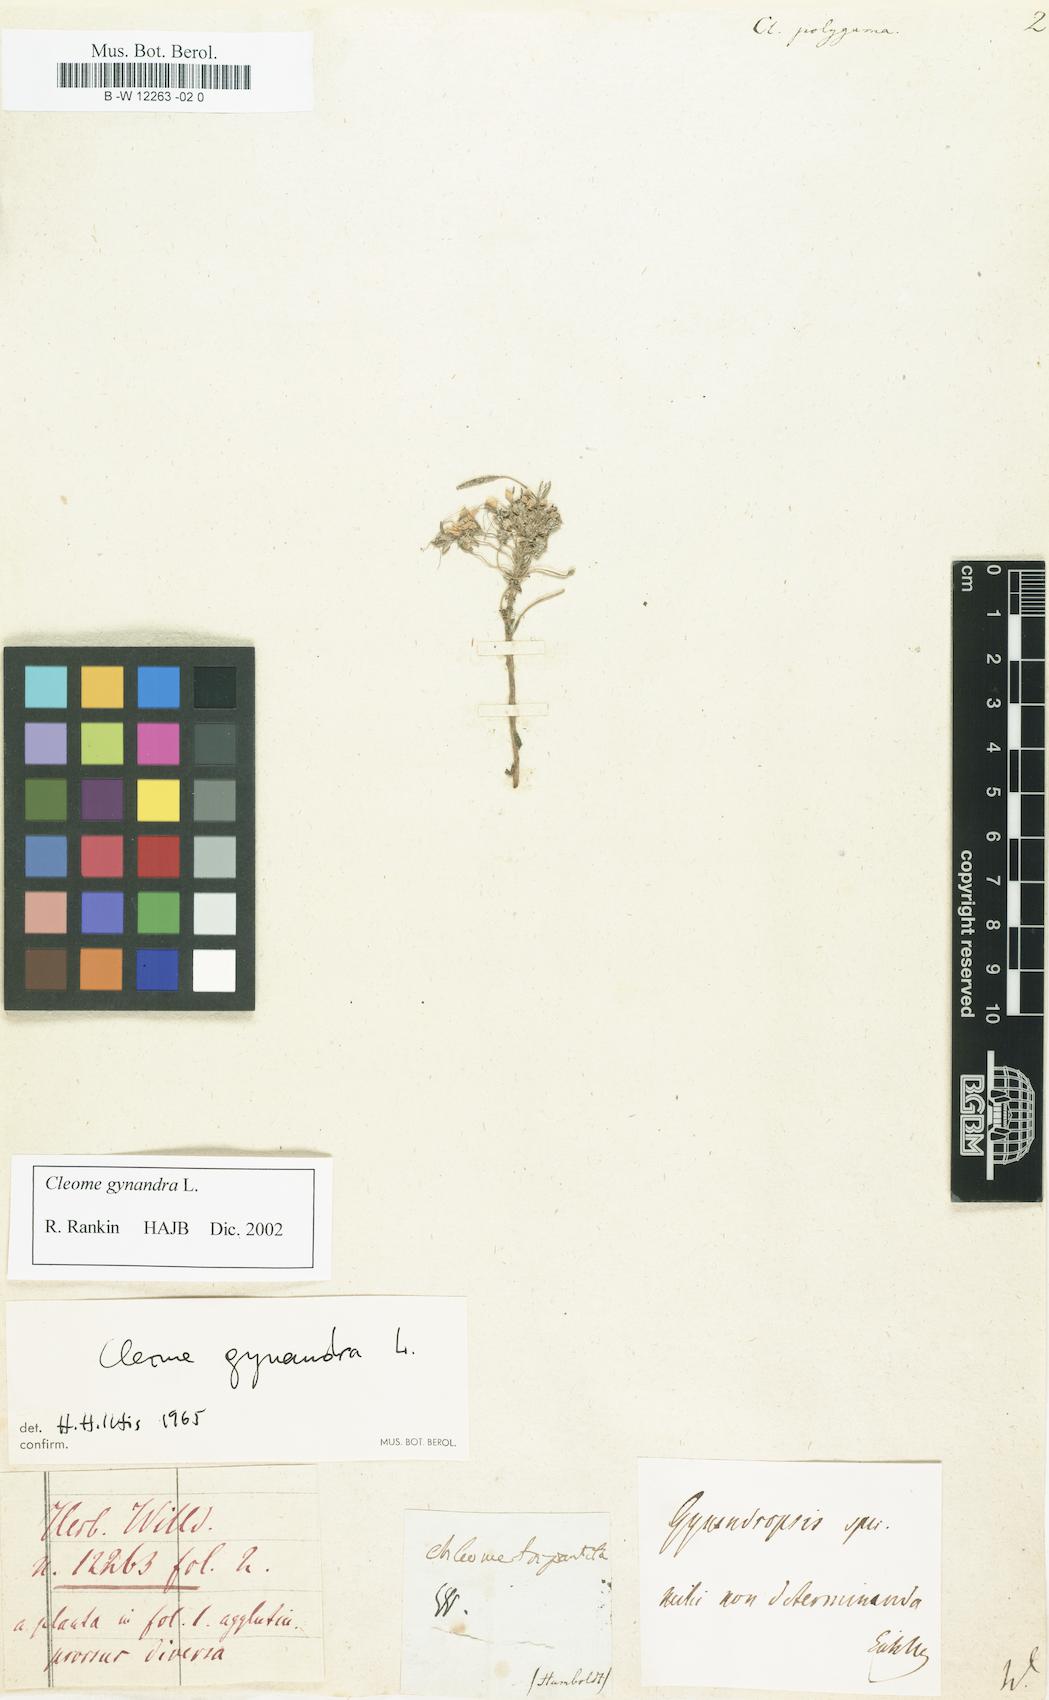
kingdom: Plantae
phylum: Tracheophyta
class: Magnoliopsida
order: Brassicales
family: Cleomaceae
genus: Cleoserrata
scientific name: Cleoserrata serrata
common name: Toothed spiderflower
